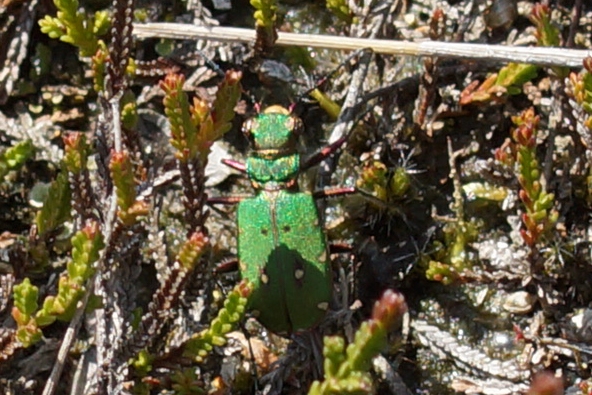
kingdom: Animalia
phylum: Arthropoda
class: Insecta
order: Coleoptera
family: Carabidae
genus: Cicindela
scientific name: Cicindela campestris
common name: Grøn sandspringer
